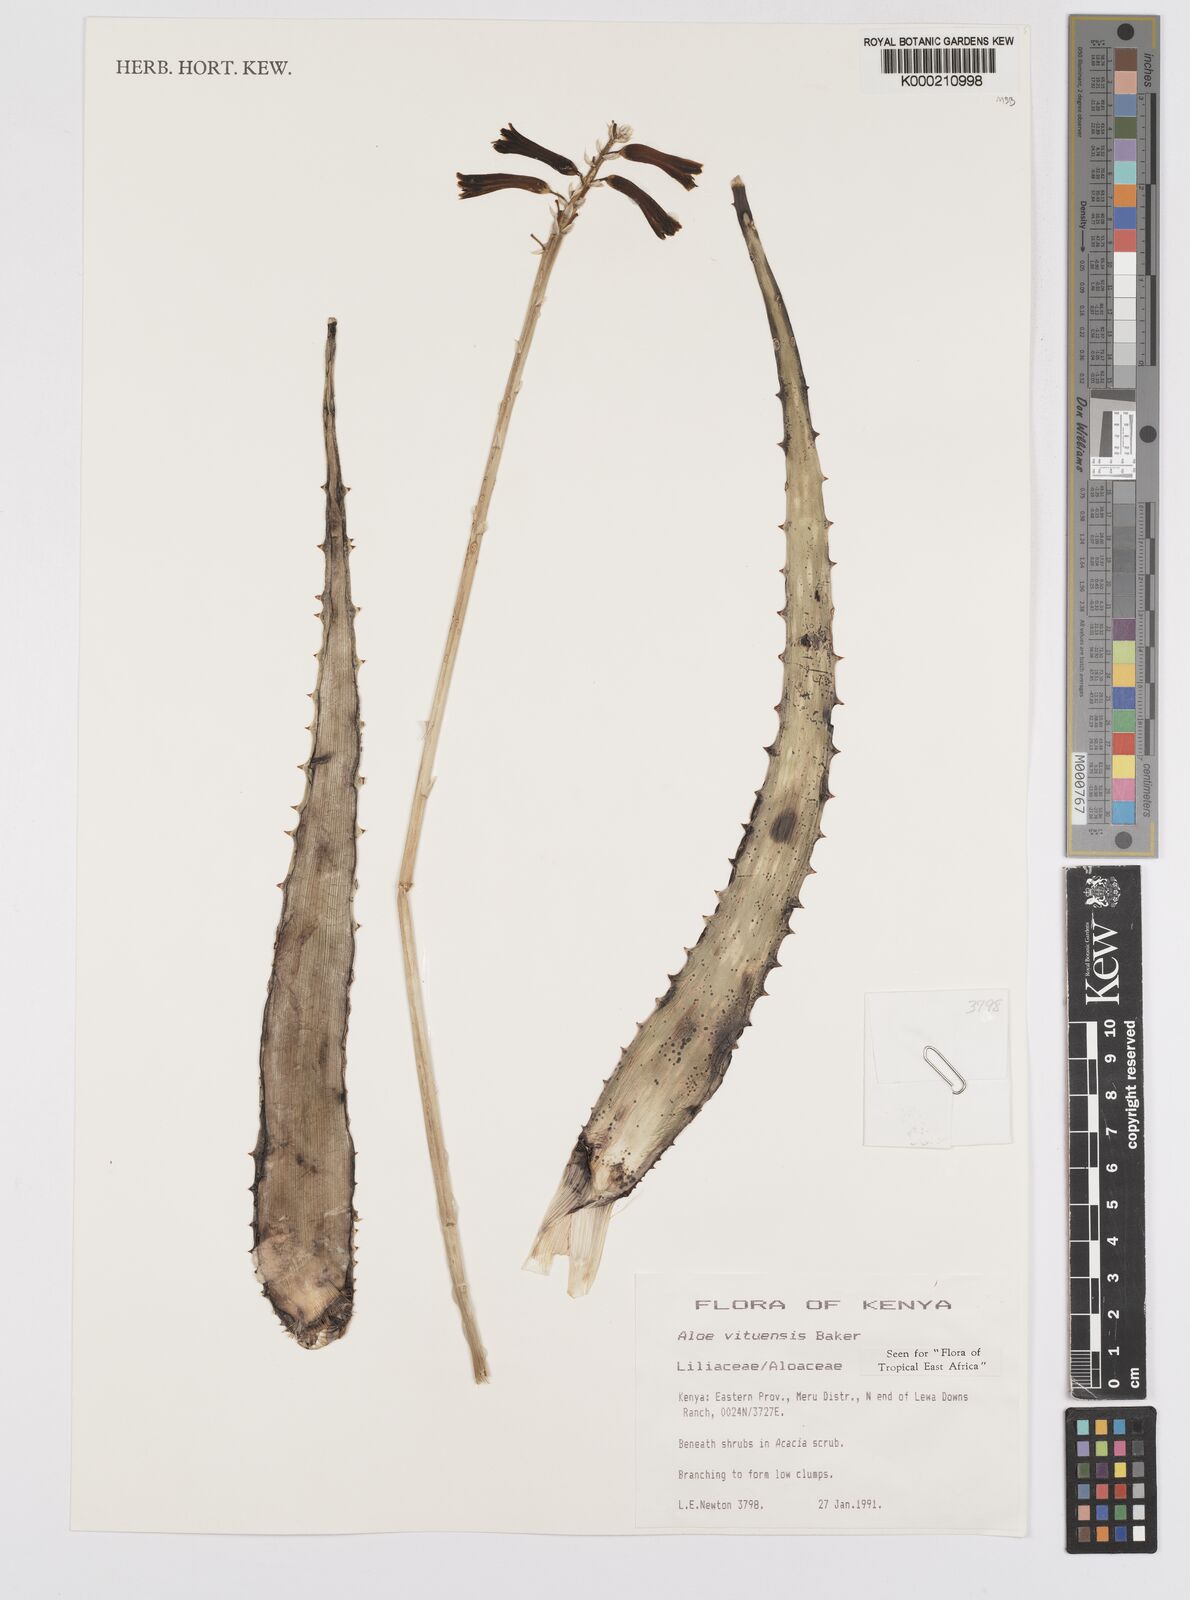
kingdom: Plantae
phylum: Tracheophyta
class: Liliopsida
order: Poales
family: Poaceae
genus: Eragrostis
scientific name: Eragrostis gangetica
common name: Slimflower lovegrass
